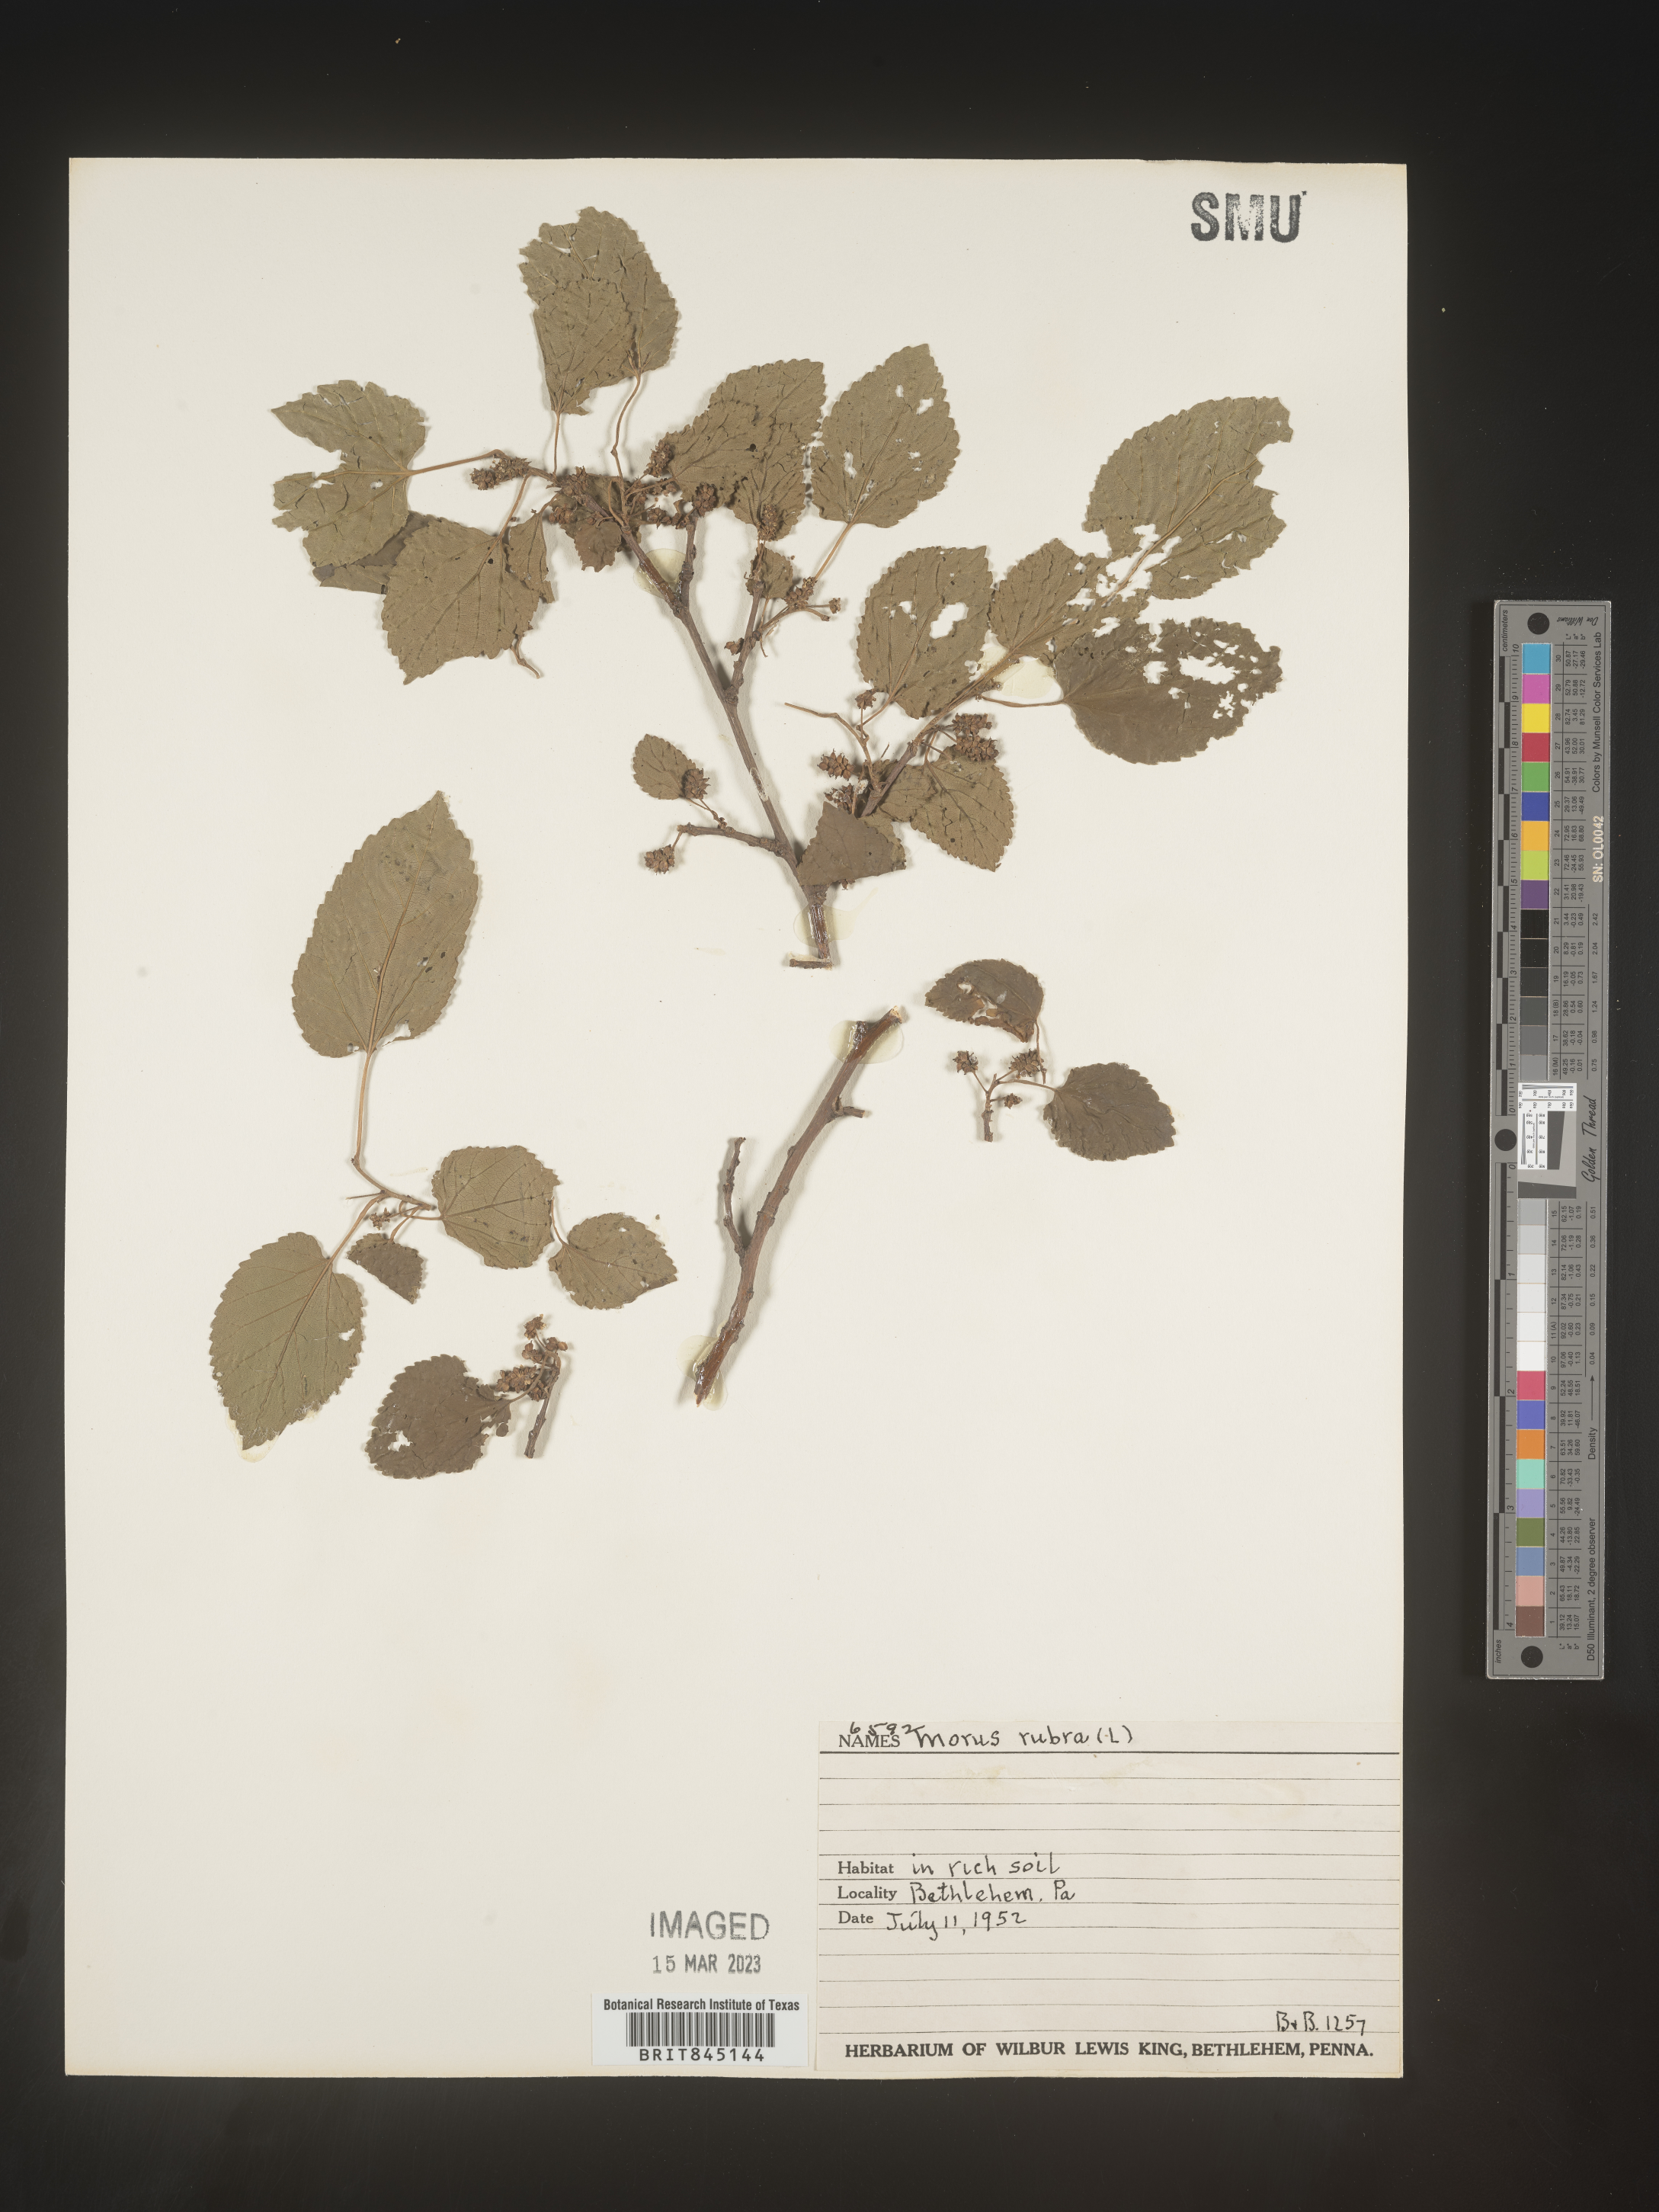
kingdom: Plantae
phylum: Tracheophyta
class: Magnoliopsida
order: Rosales
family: Moraceae
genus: Morus
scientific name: Morus rubra
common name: Red mulberry
